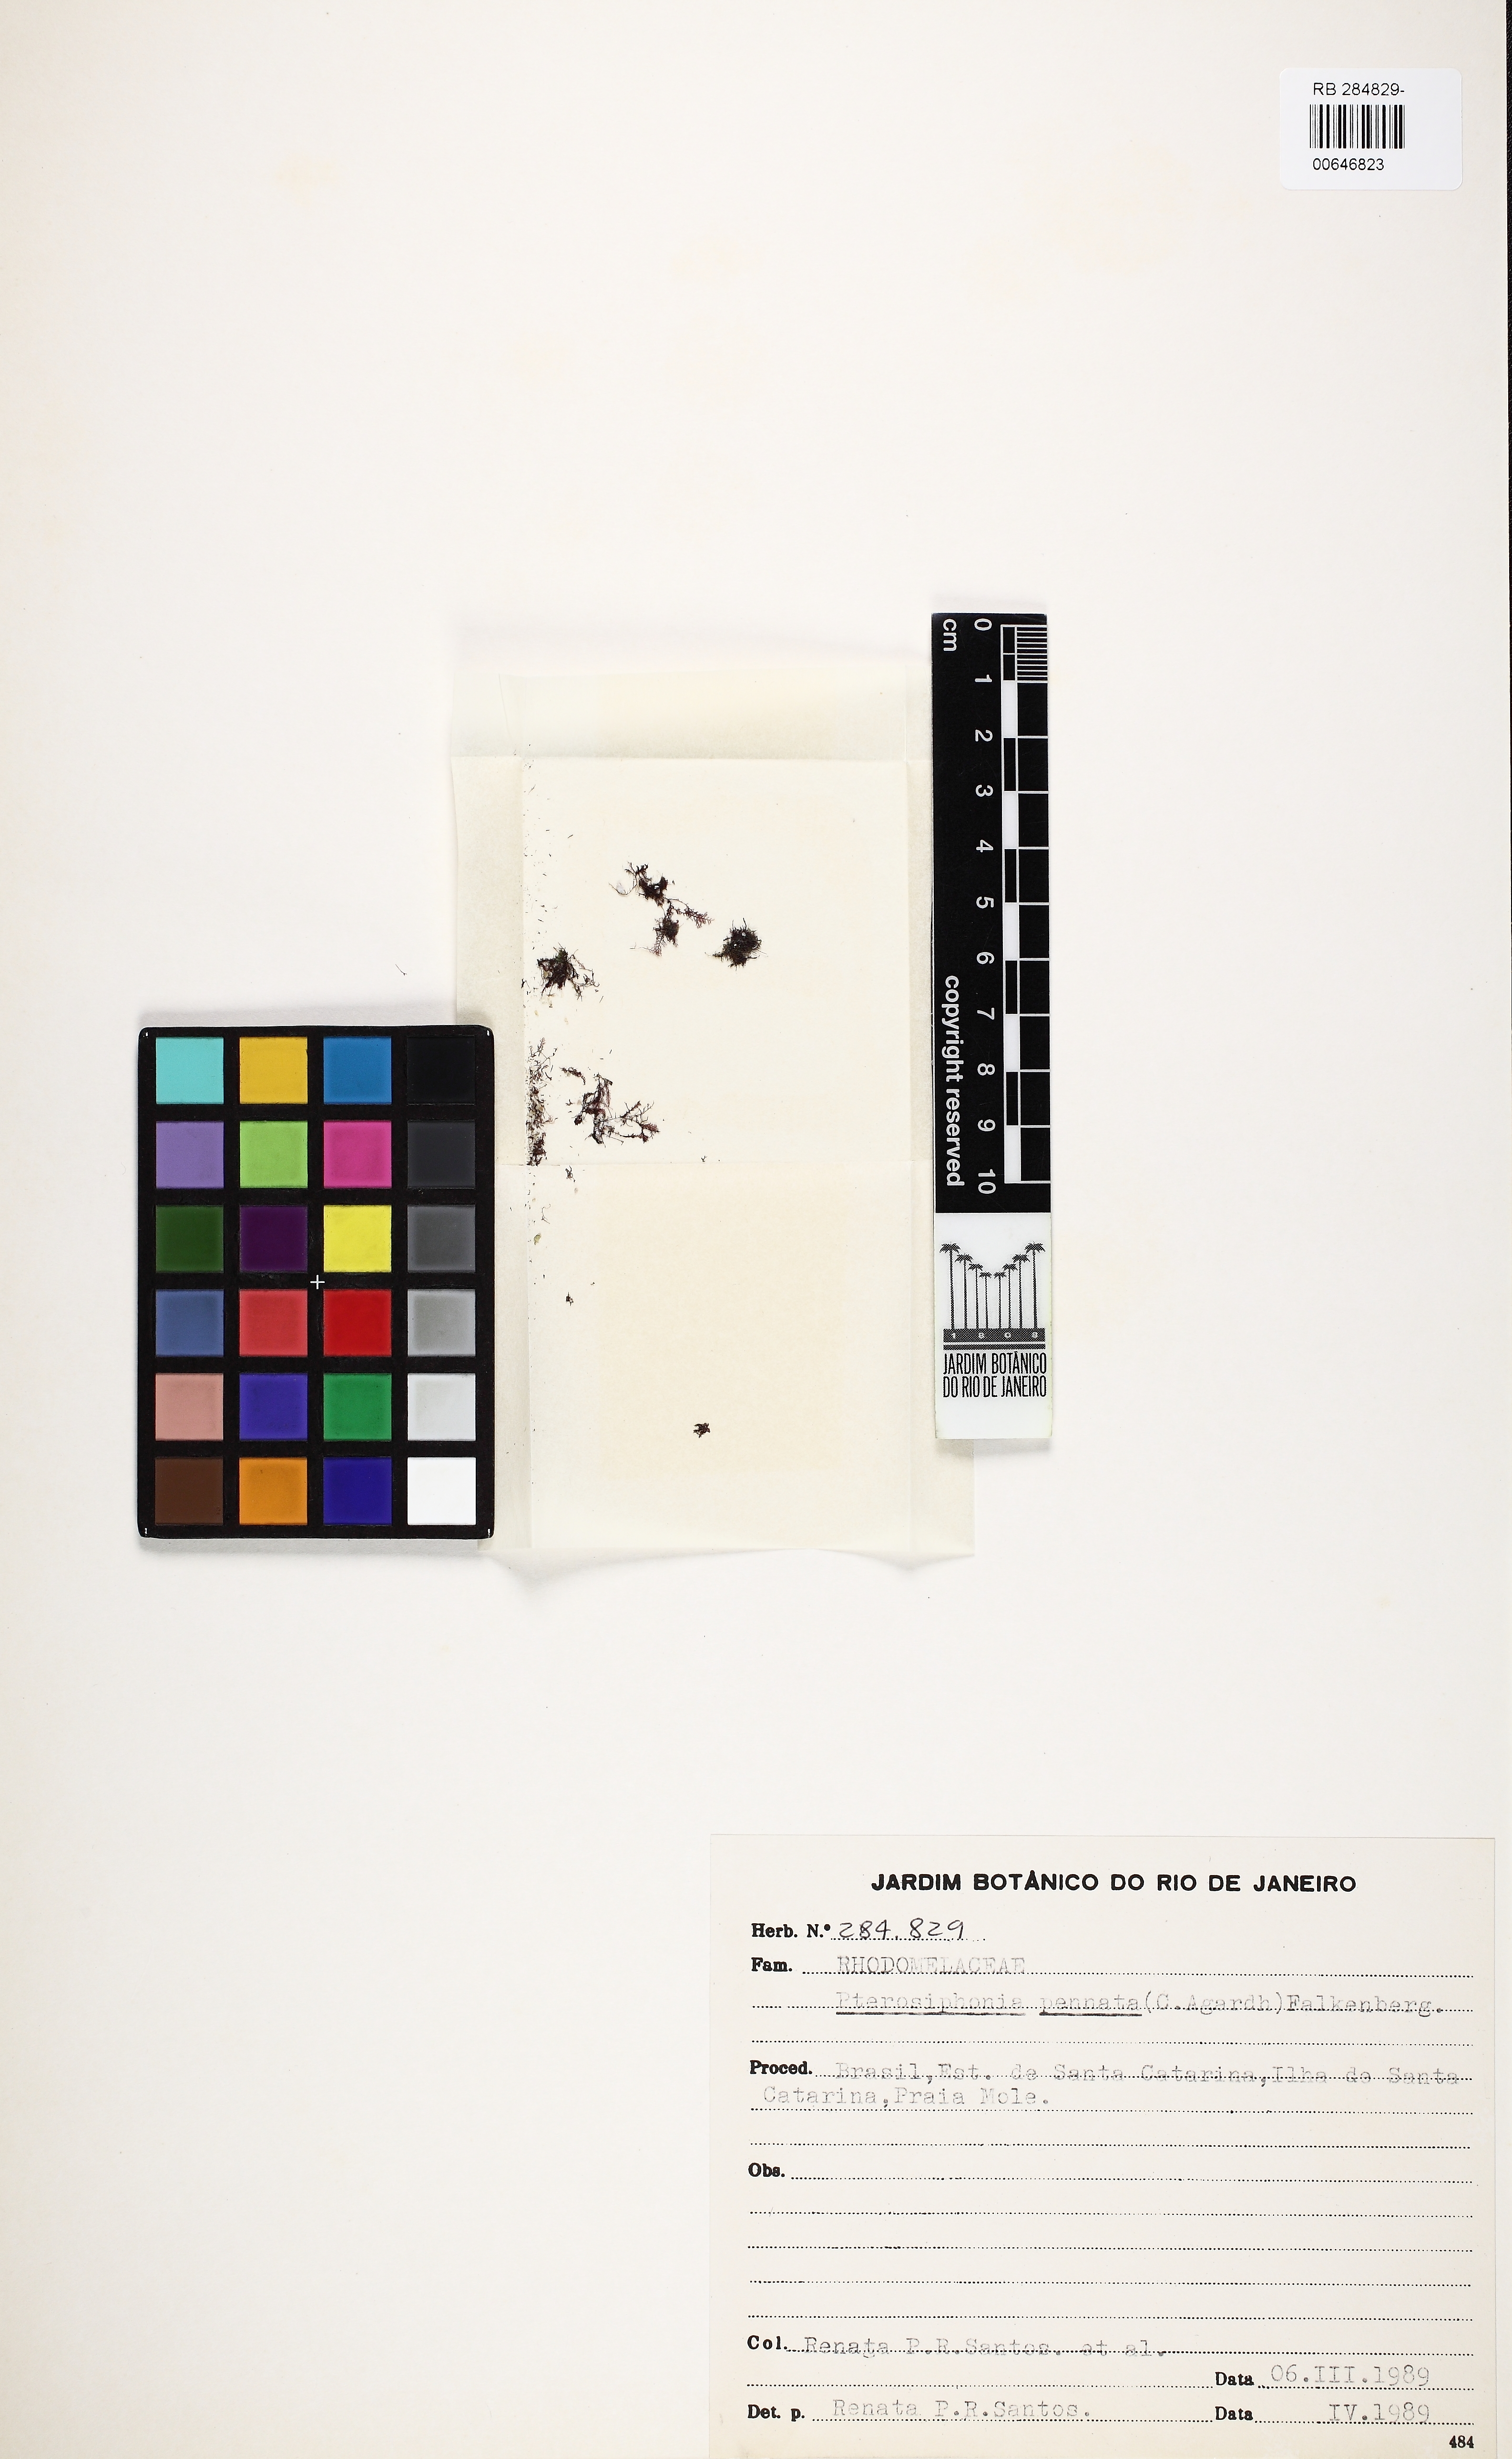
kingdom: Plantae
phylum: Rhodophyta
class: Florideophyceae
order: Ceramiales
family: Rhodomelaceae
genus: Pterosiphonia
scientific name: Pterosiphonia pennata
